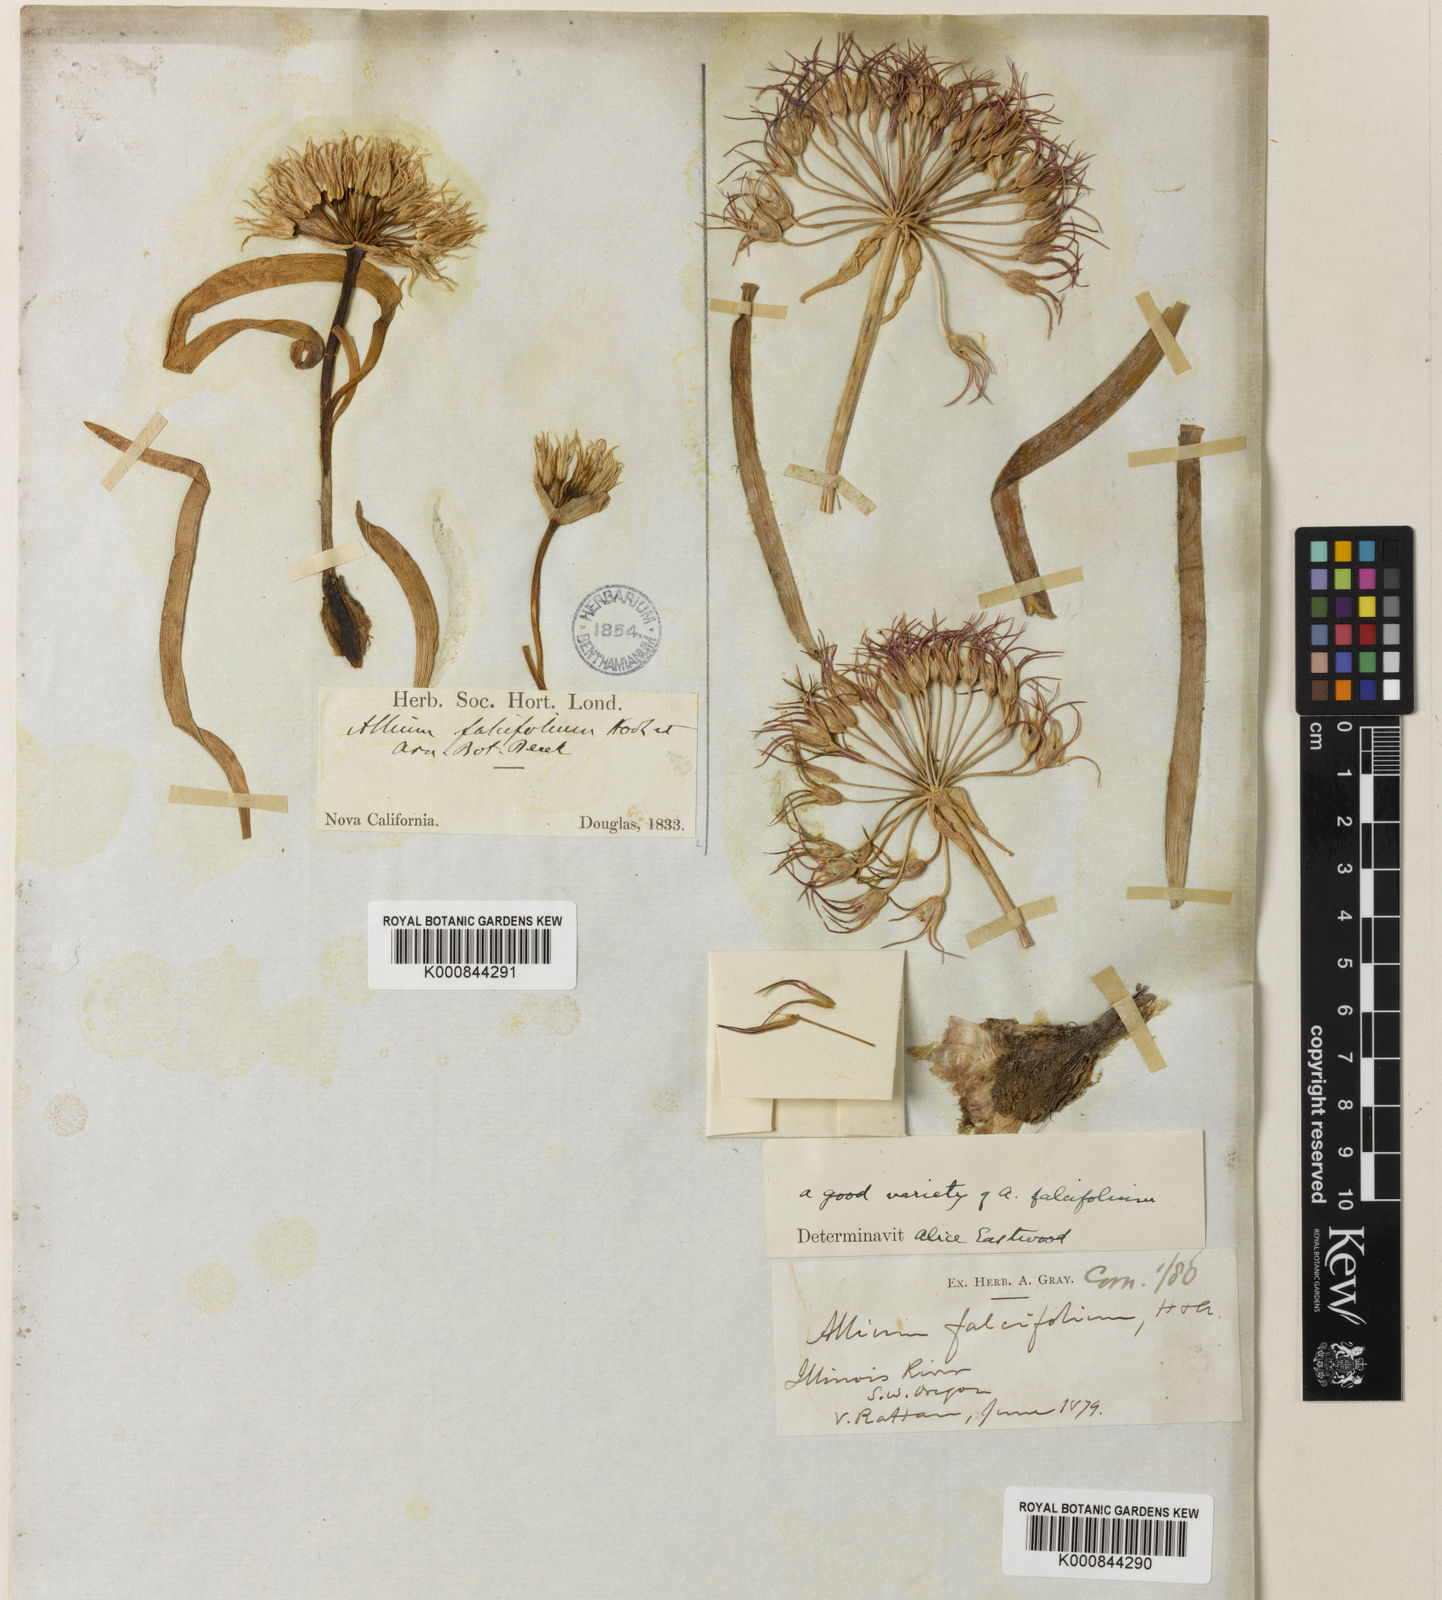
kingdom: Plantae
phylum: Tracheophyta
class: Liliopsida
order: Asparagales
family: Amaryllidaceae
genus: Allium
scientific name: Allium falcifolium
